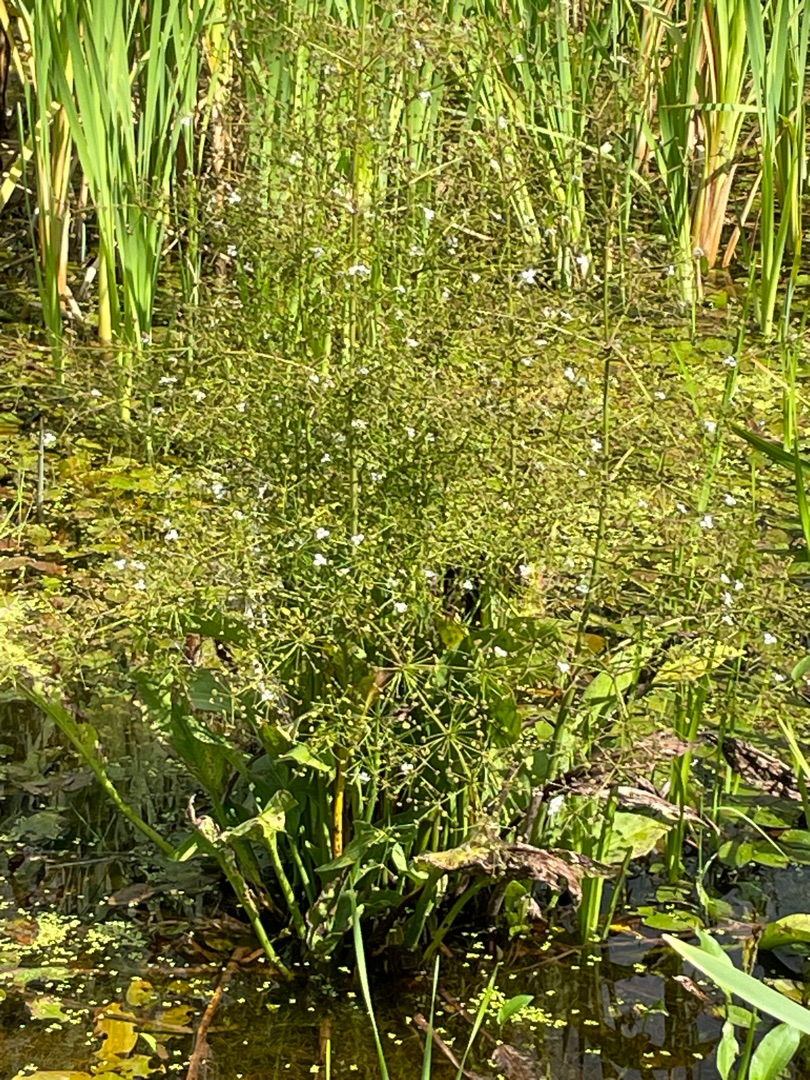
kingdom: Plantae
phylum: Tracheophyta
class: Liliopsida
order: Alismatales
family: Alismataceae
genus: Alisma
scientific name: Alisma plantago-aquatica
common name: Vejbred-skeblad
